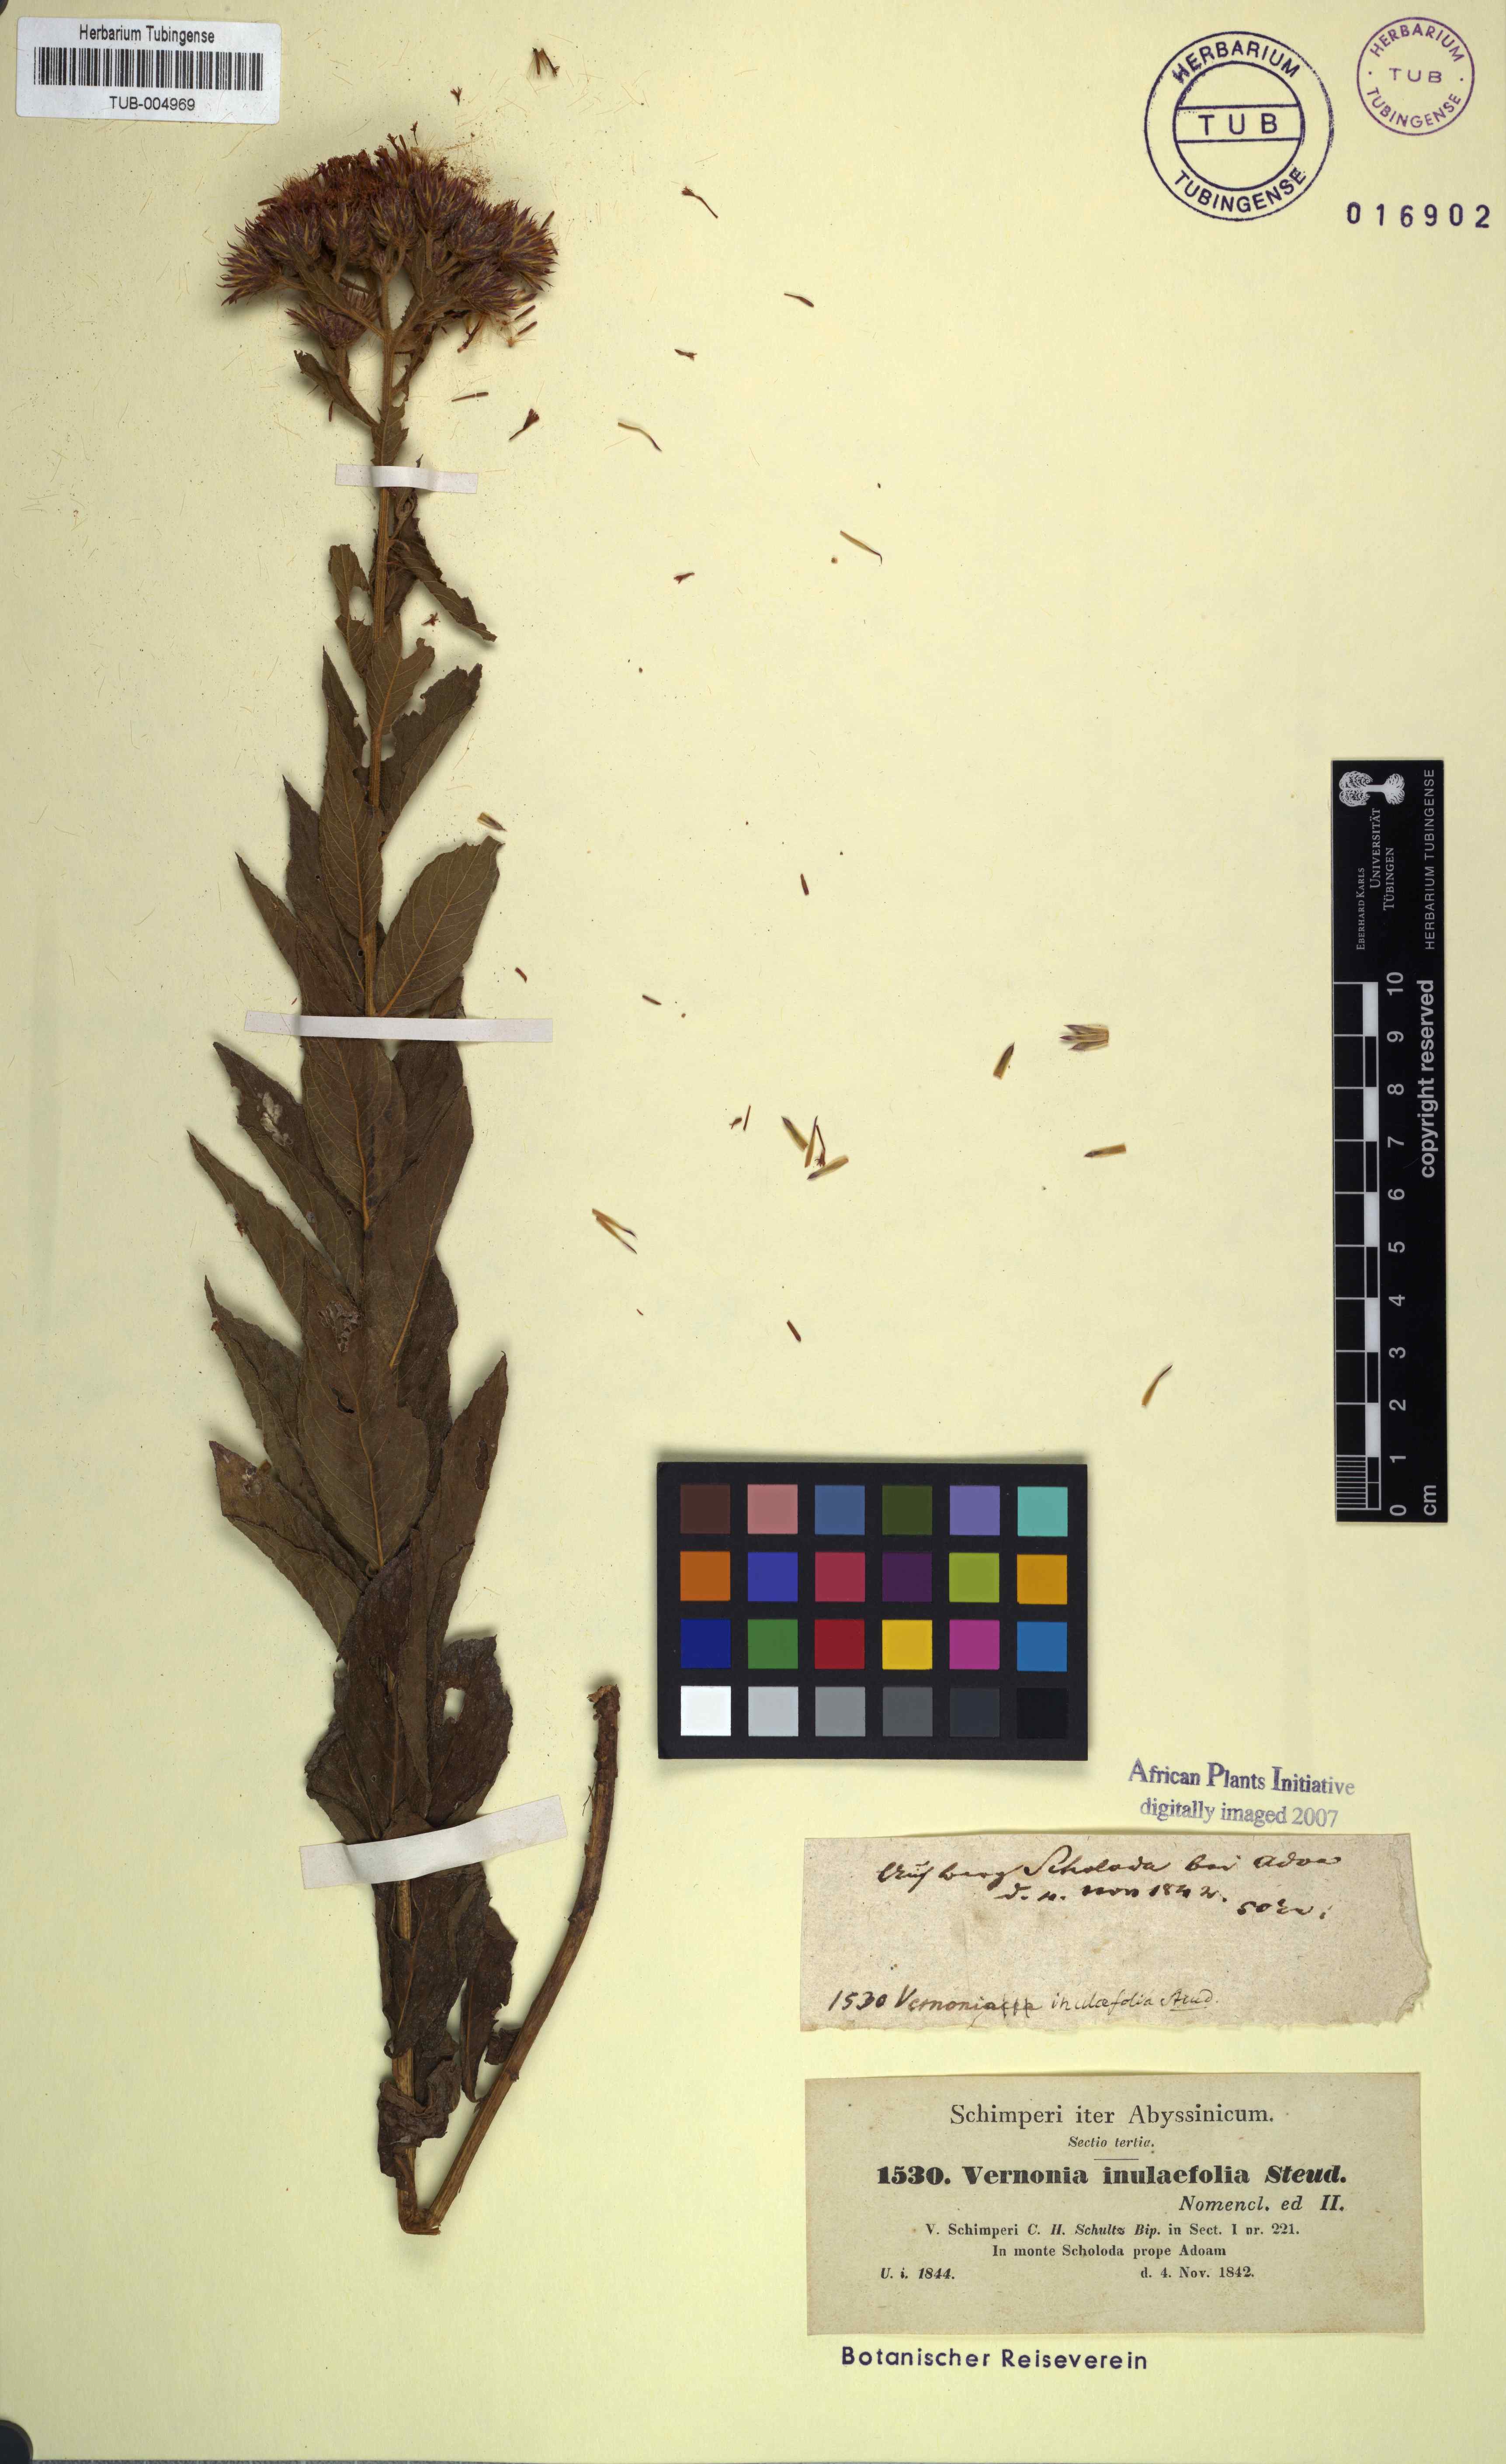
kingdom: Plantae
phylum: Tracheophyta
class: Magnoliopsida
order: Asterales
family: Asteraceae
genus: Nothovernonia
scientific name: Nothovernonia purpurea
